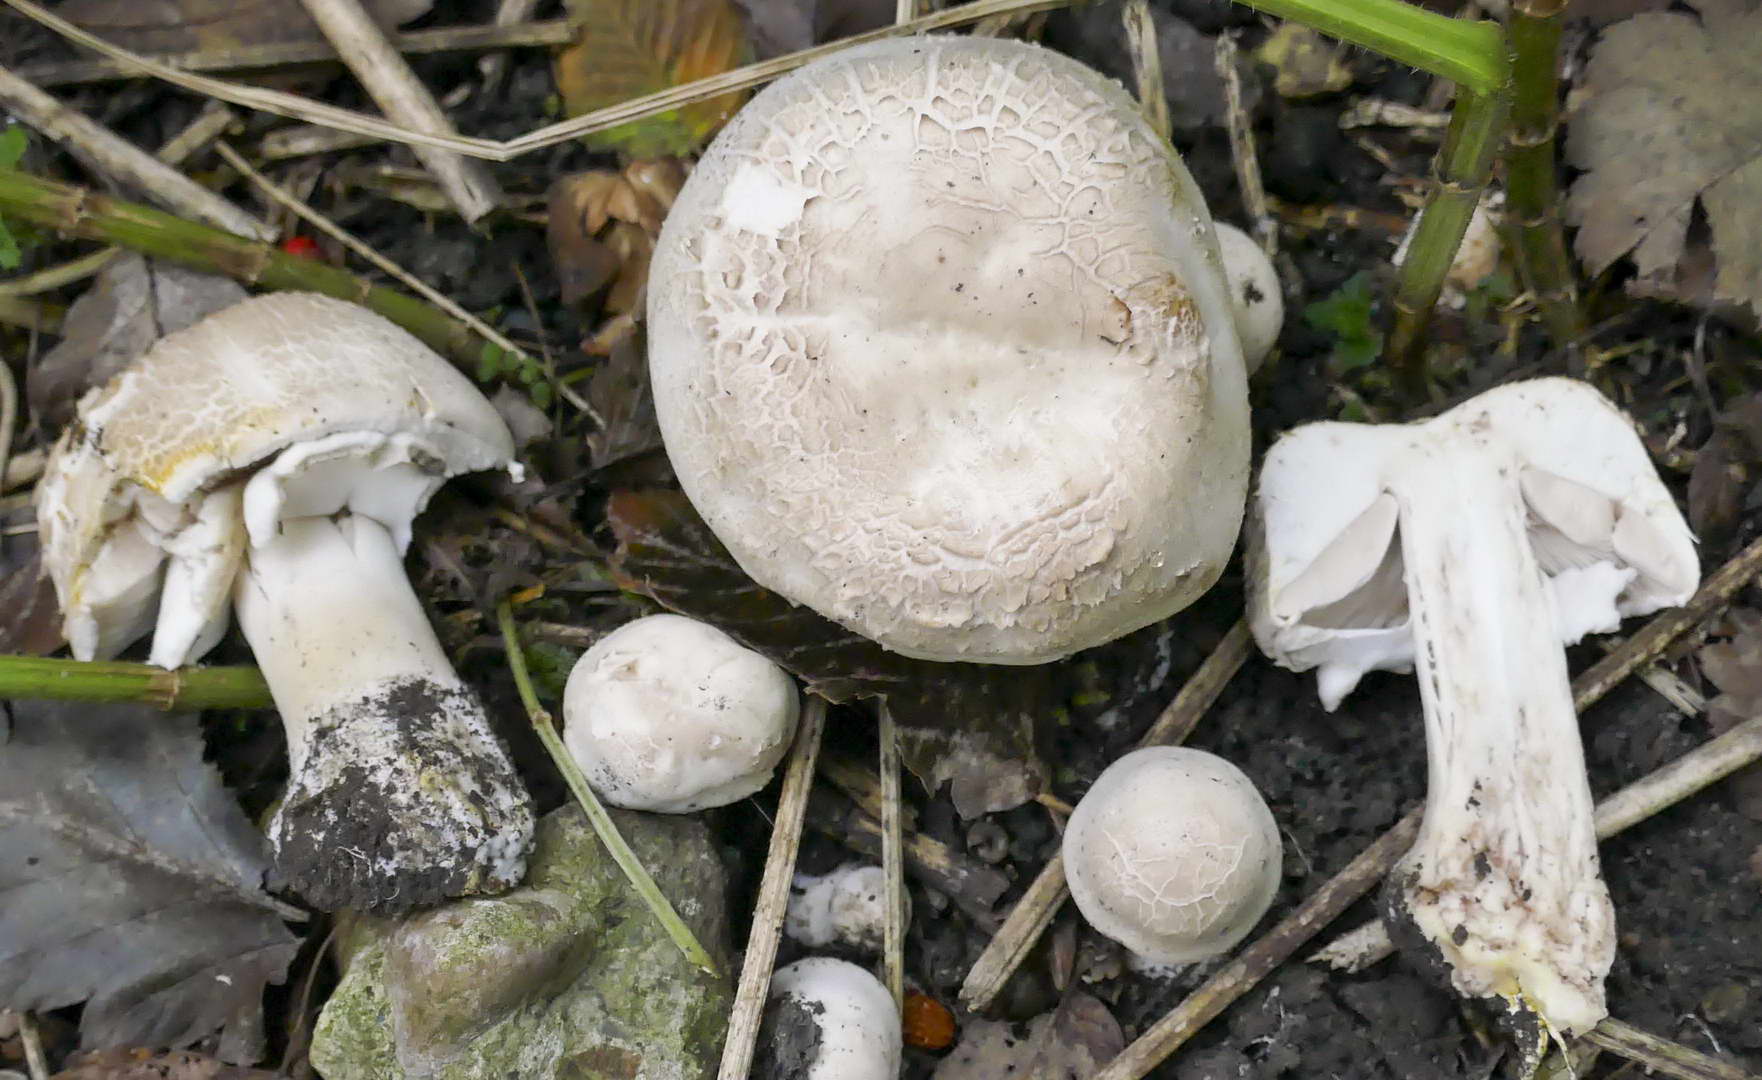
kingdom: Fungi
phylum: Basidiomycota
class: Agaricomycetes
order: Agaricales
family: Agaricaceae
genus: Agaricus
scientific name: Agaricus xanthodermus
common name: karbol-champignon
